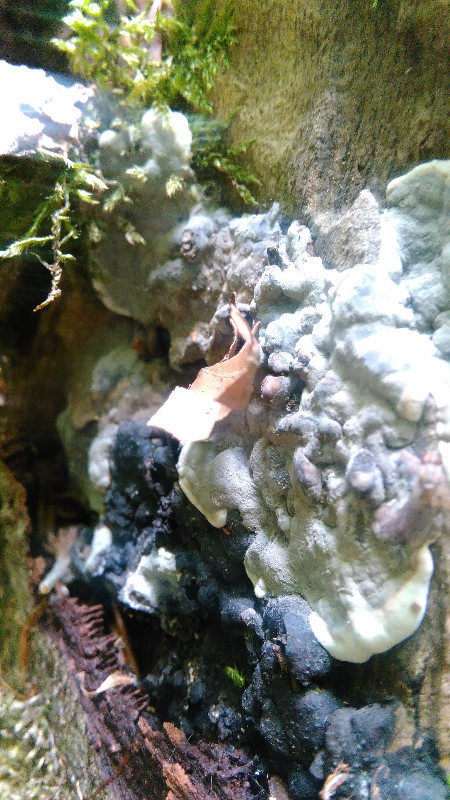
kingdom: Fungi
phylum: Ascomycota
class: Sordariomycetes
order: Xylariales
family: Xylariaceae
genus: Kretzschmaria
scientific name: Kretzschmaria deusta
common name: stor kulsvamp
